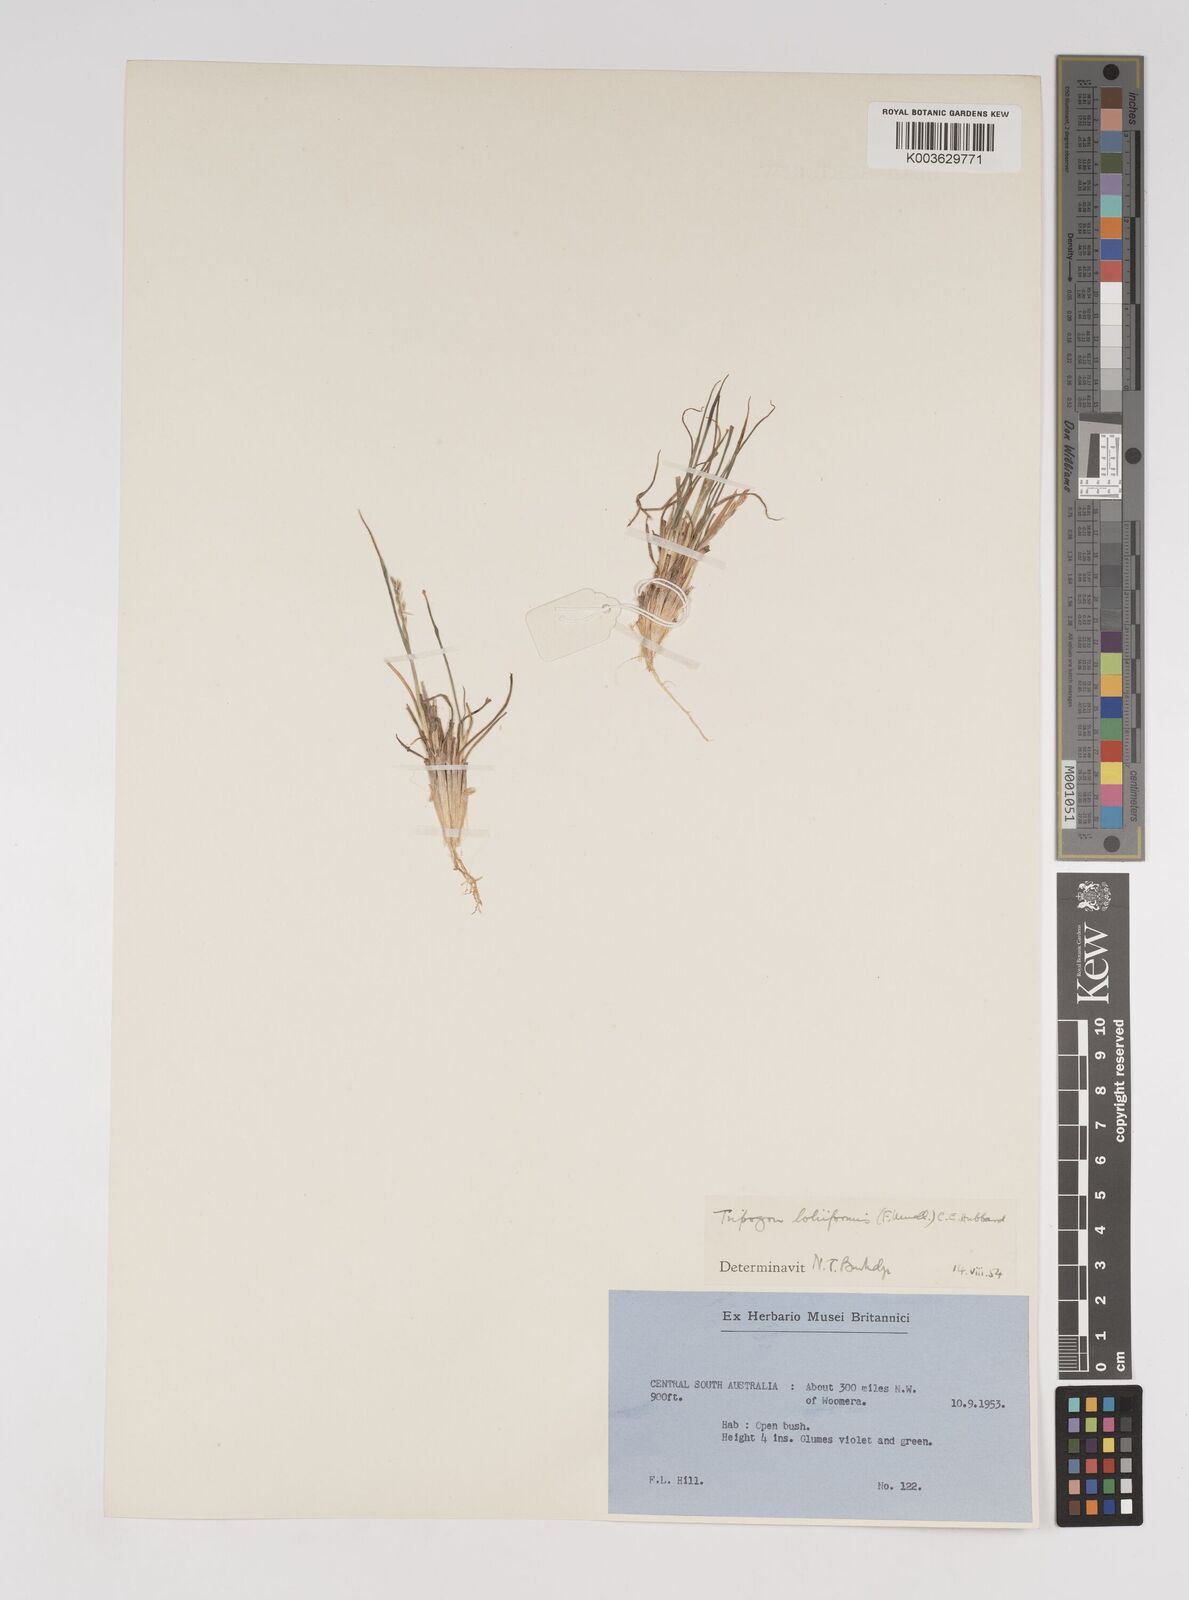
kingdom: Plantae
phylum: Tracheophyta
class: Liliopsida
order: Poales
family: Poaceae
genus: Tripogonella
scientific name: Tripogonella loliiformis
